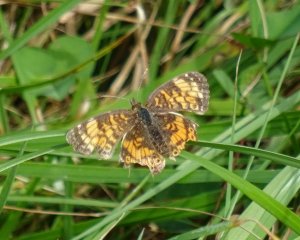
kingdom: Animalia
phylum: Arthropoda
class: Insecta
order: Lepidoptera
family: Nymphalidae
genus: Phyciodes
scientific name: Phyciodes
